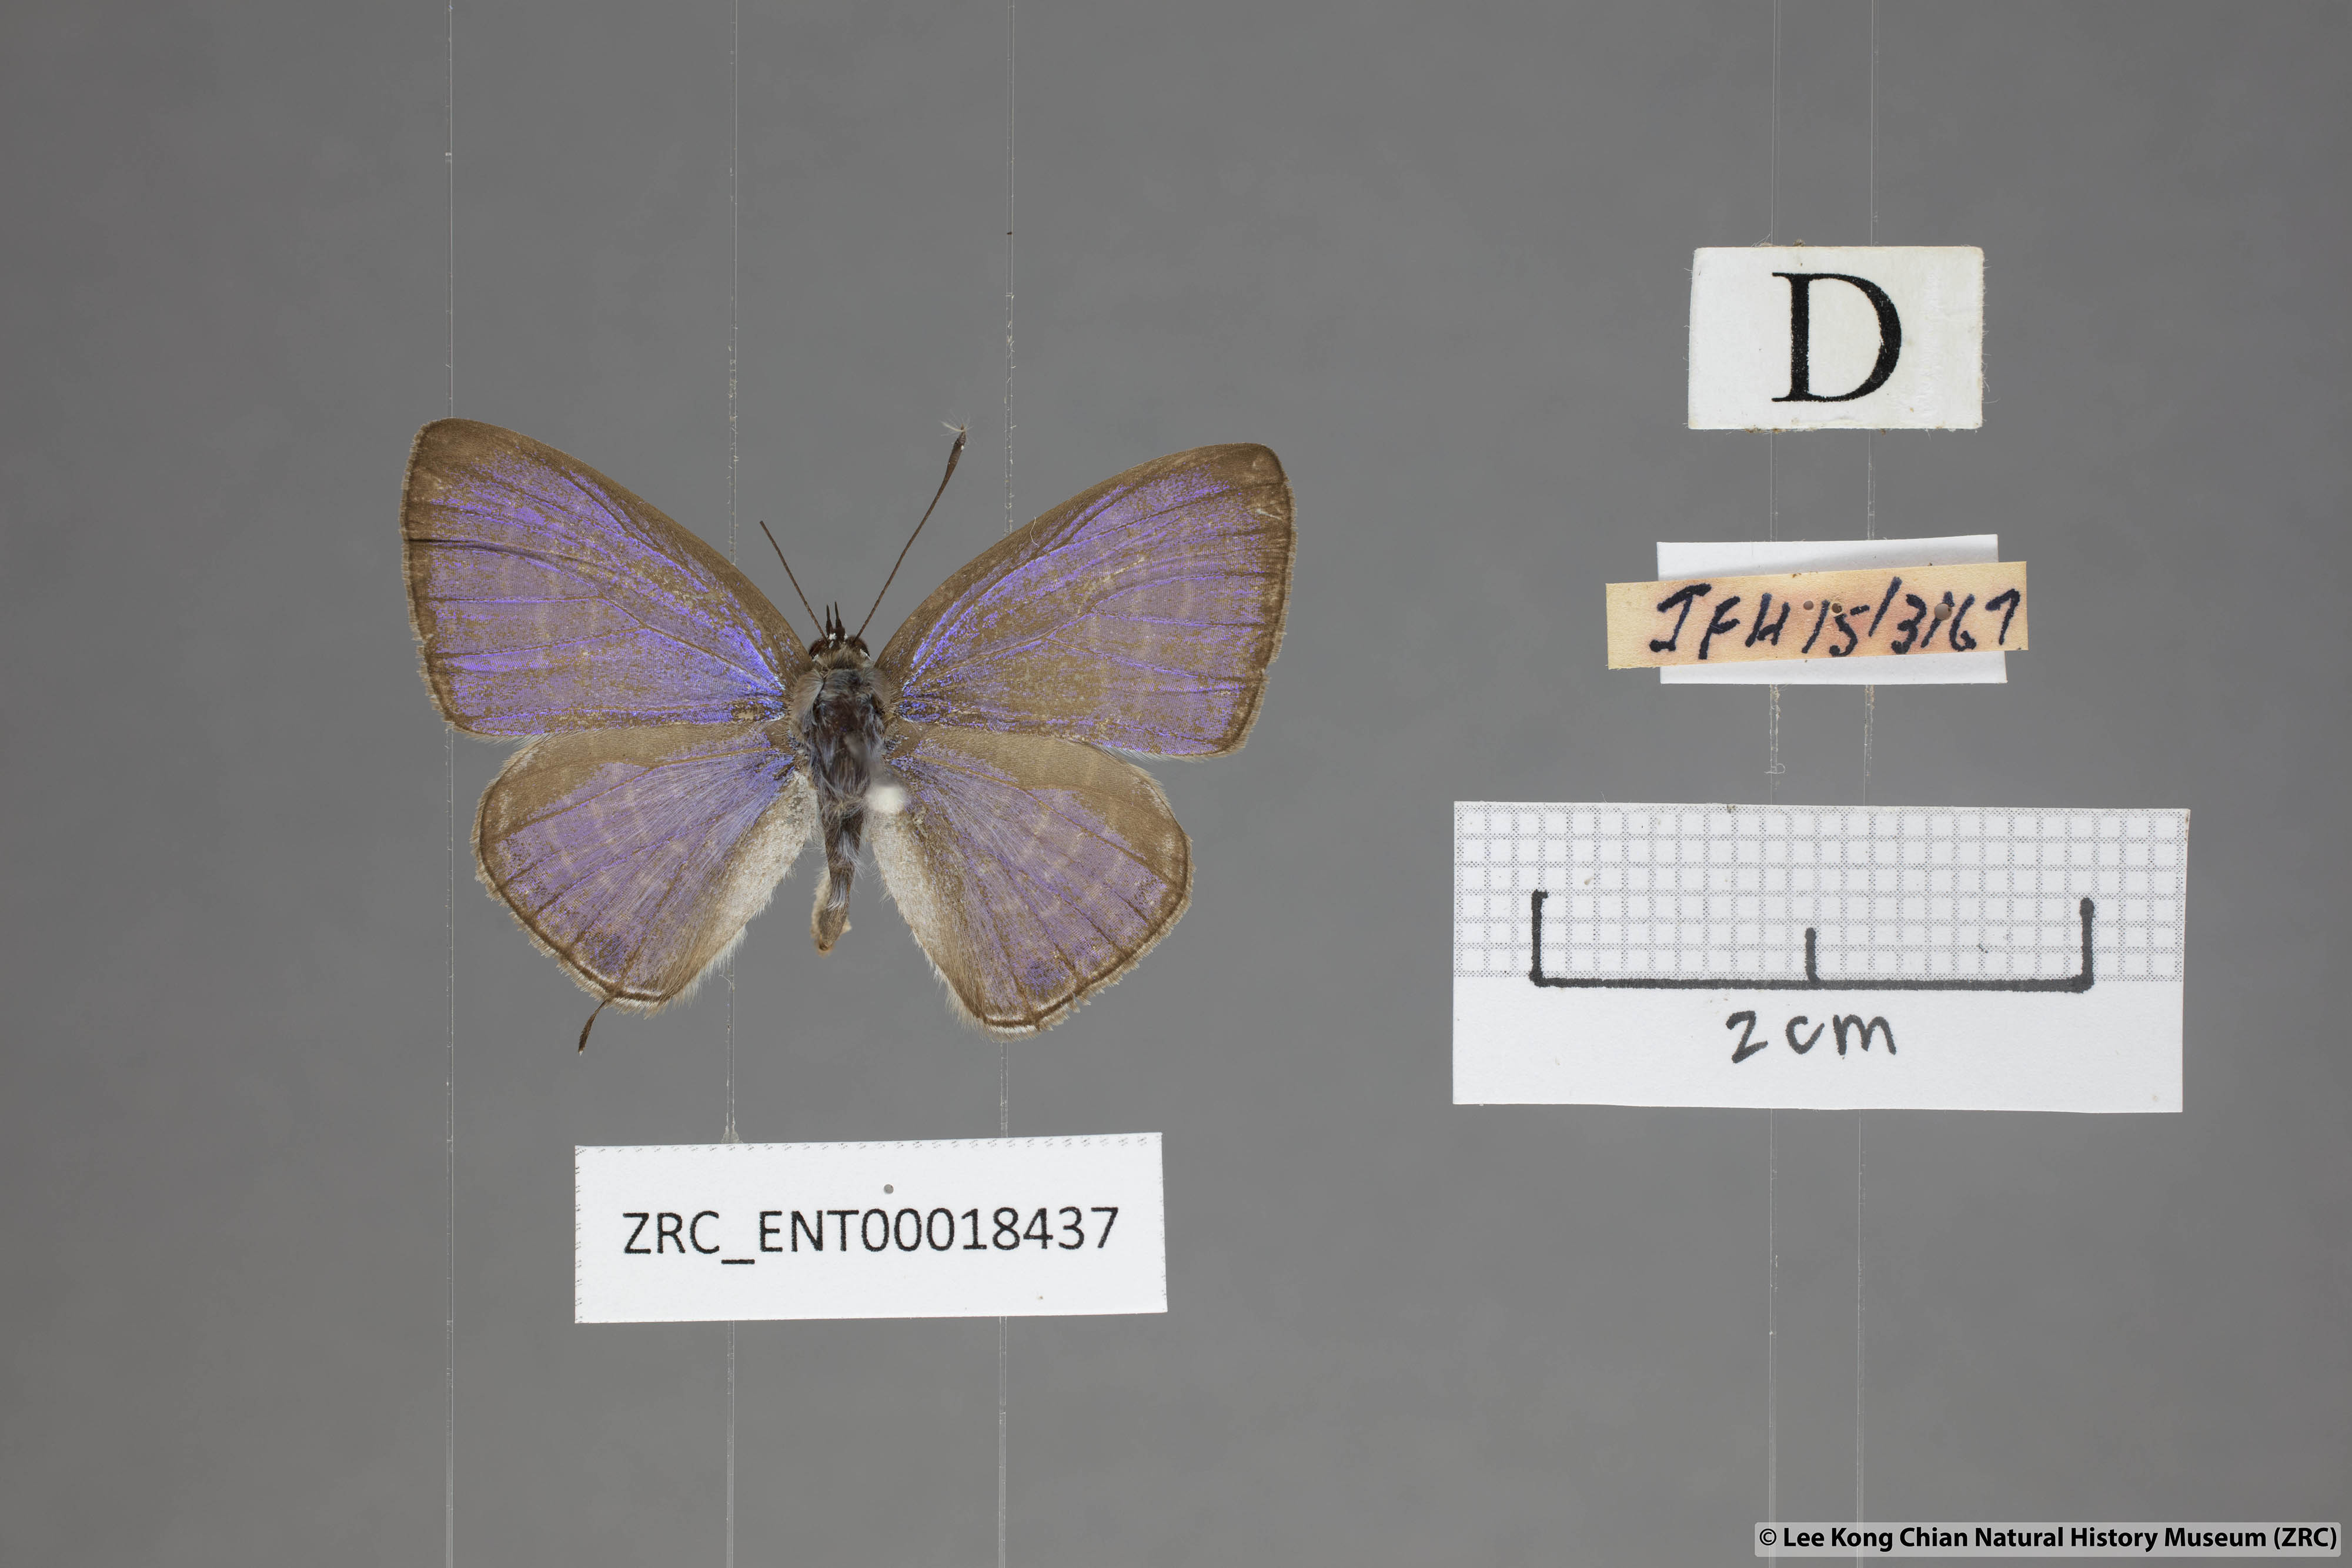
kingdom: Animalia
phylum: Arthropoda
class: Insecta
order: Lepidoptera
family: Lycaenidae
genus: Nacaduba
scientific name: Nacaduba pendleburyi
